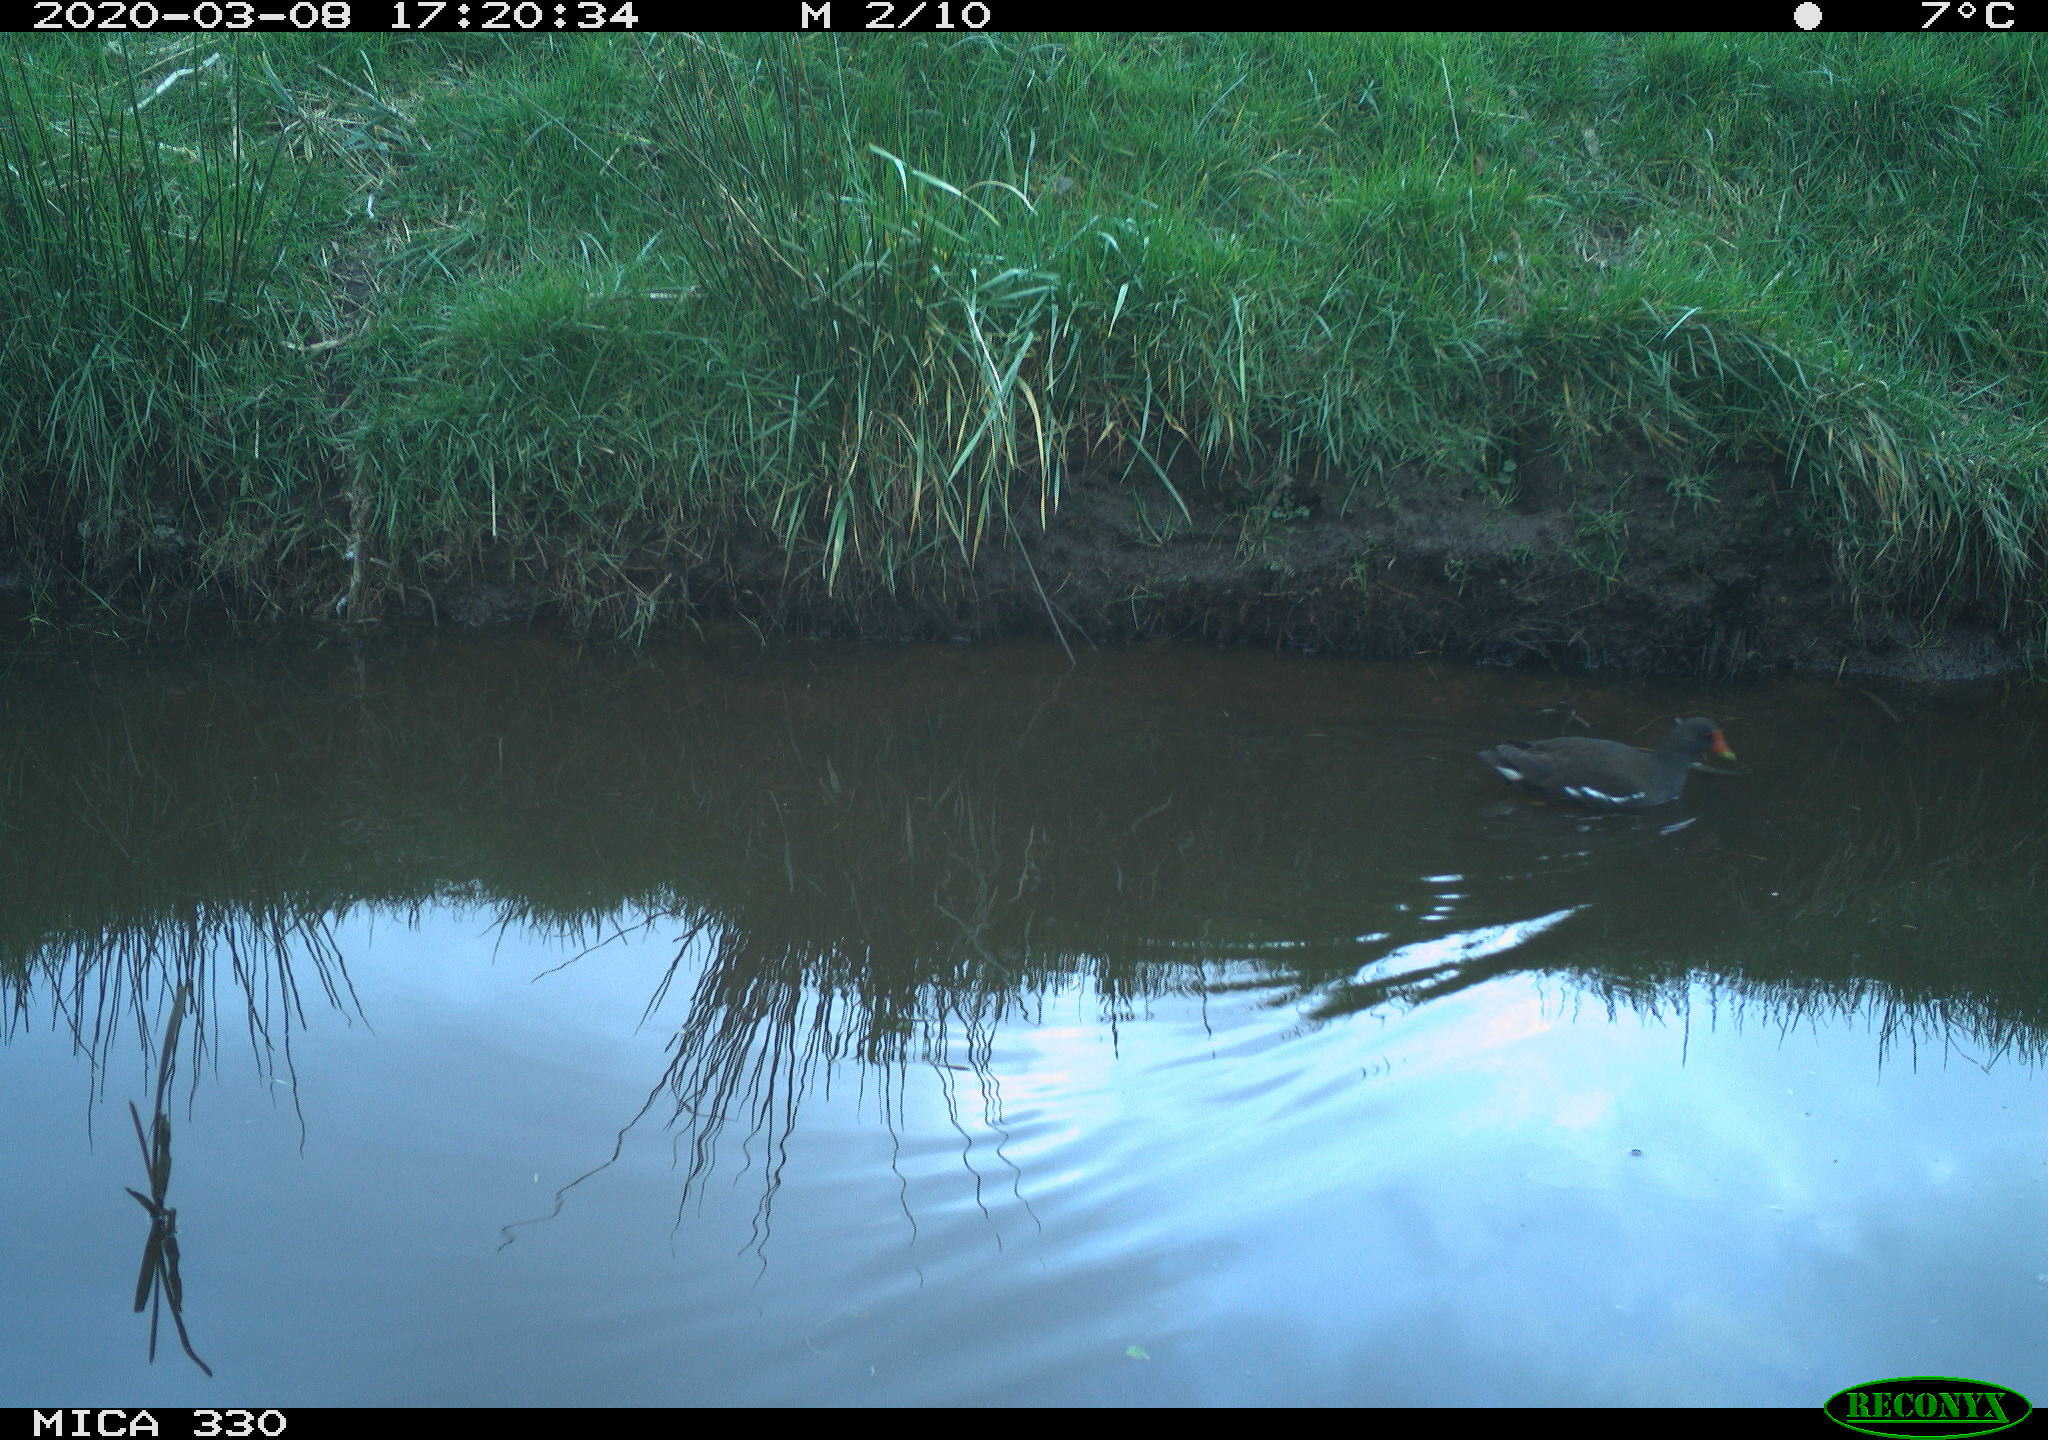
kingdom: Animalia
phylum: Chordata
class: Aves
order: Gruiformes
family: Rallidae
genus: Gallinula
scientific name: Gallinula chloropus
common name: Common moorhen
